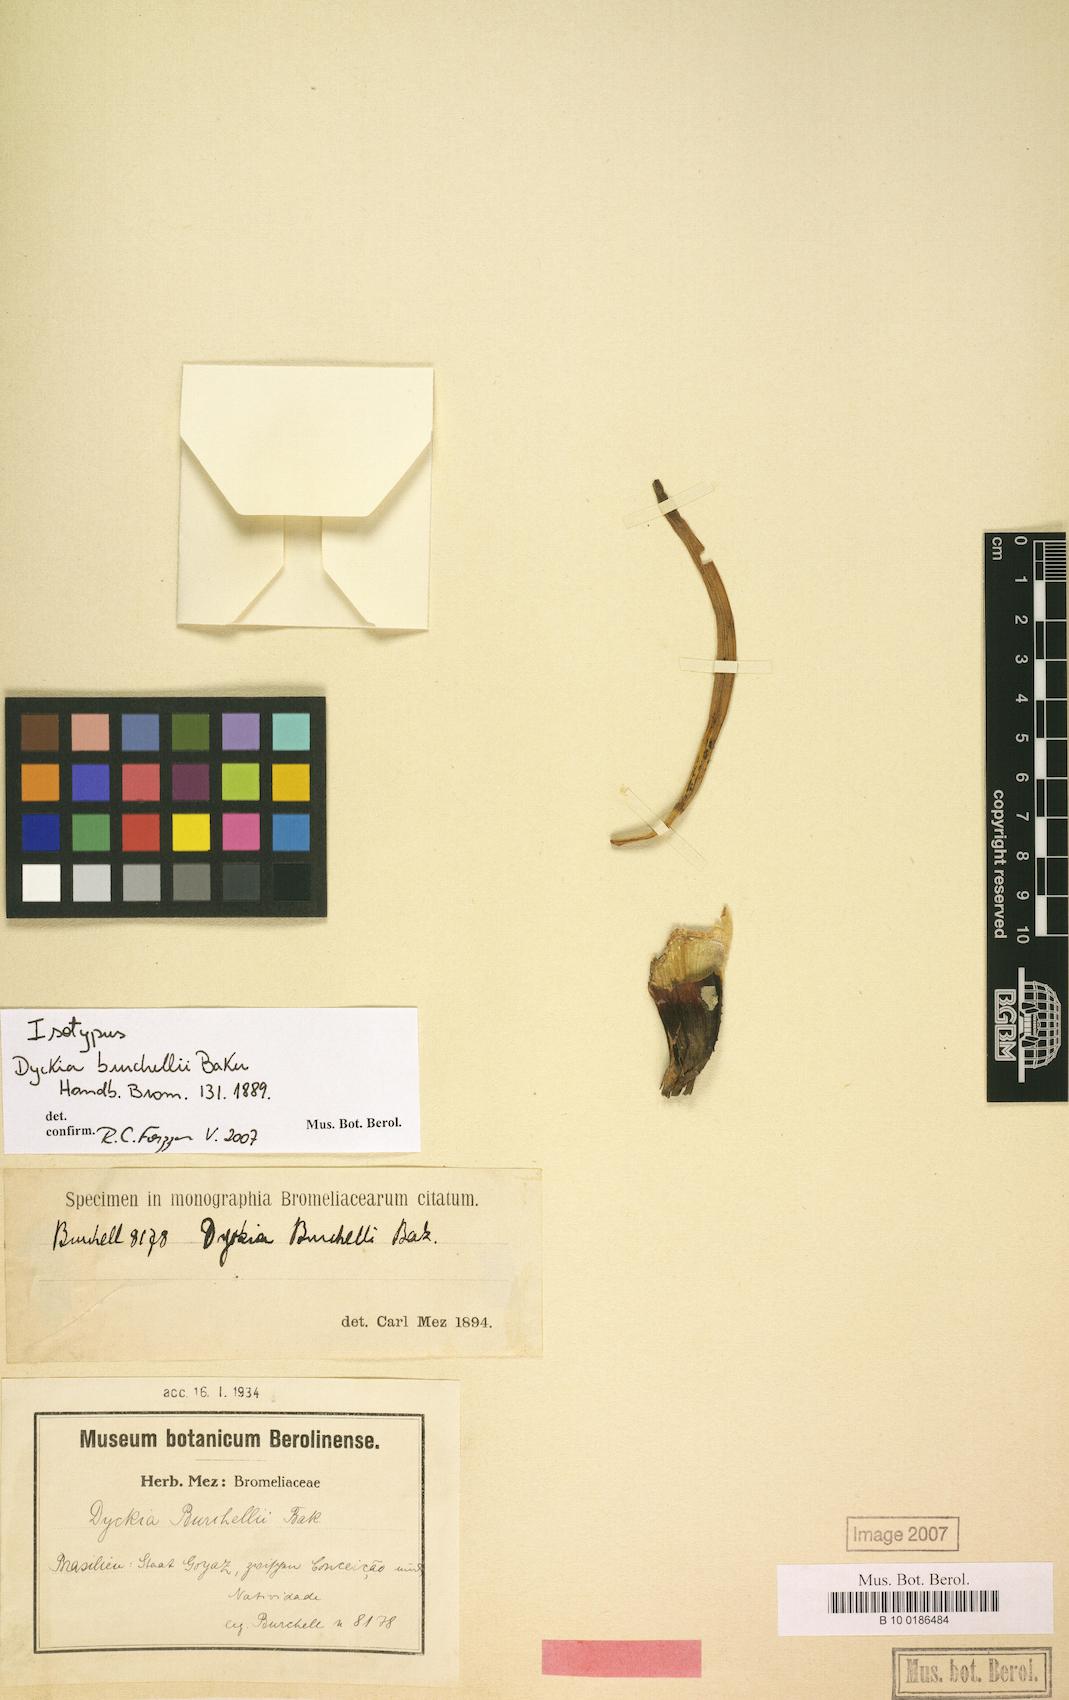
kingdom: Plantae
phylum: Tracheophyta
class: Liliopsida
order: Poales
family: Bromeliaceae
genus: Dyckia
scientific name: Dyckia burchellii
